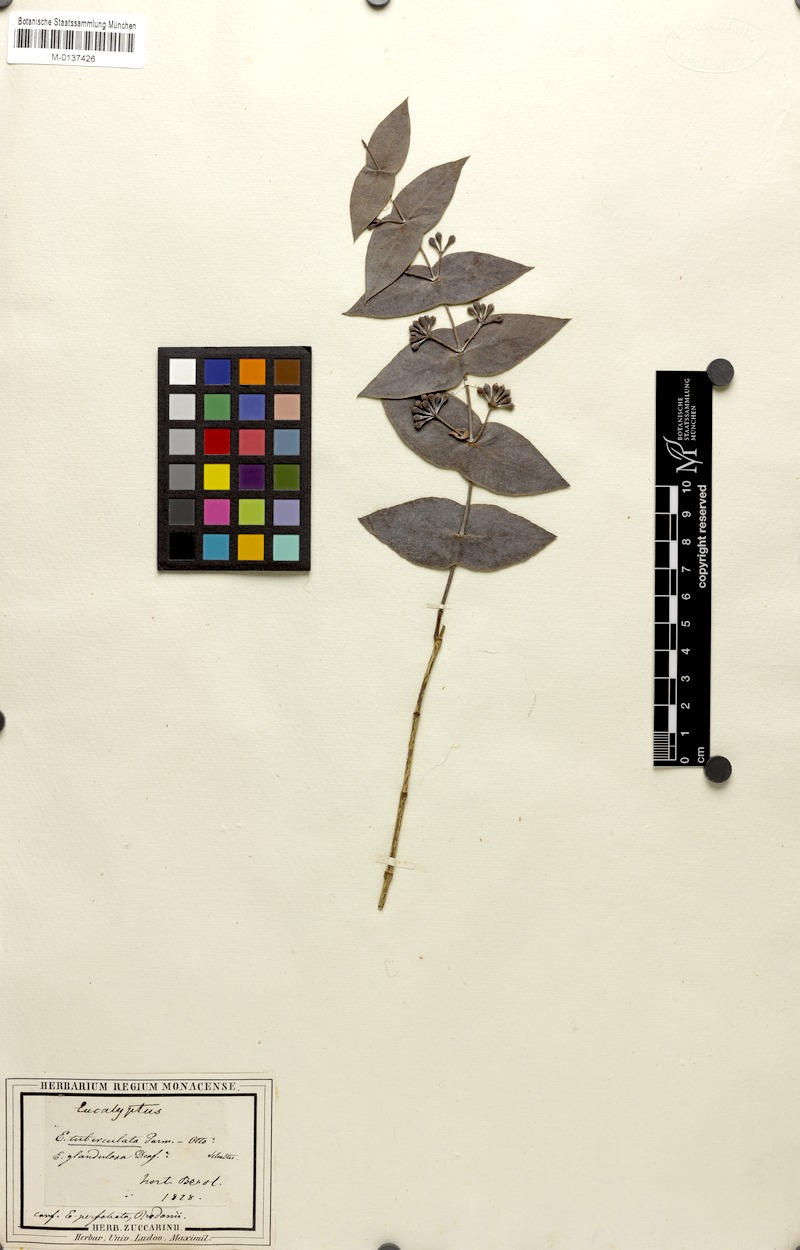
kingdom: Plantae
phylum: Tracheophyta
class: Magnoliopsida
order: Myrtales
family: Myrtaceae
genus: Eucalyptus
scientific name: Eucalyptus tuberculata
